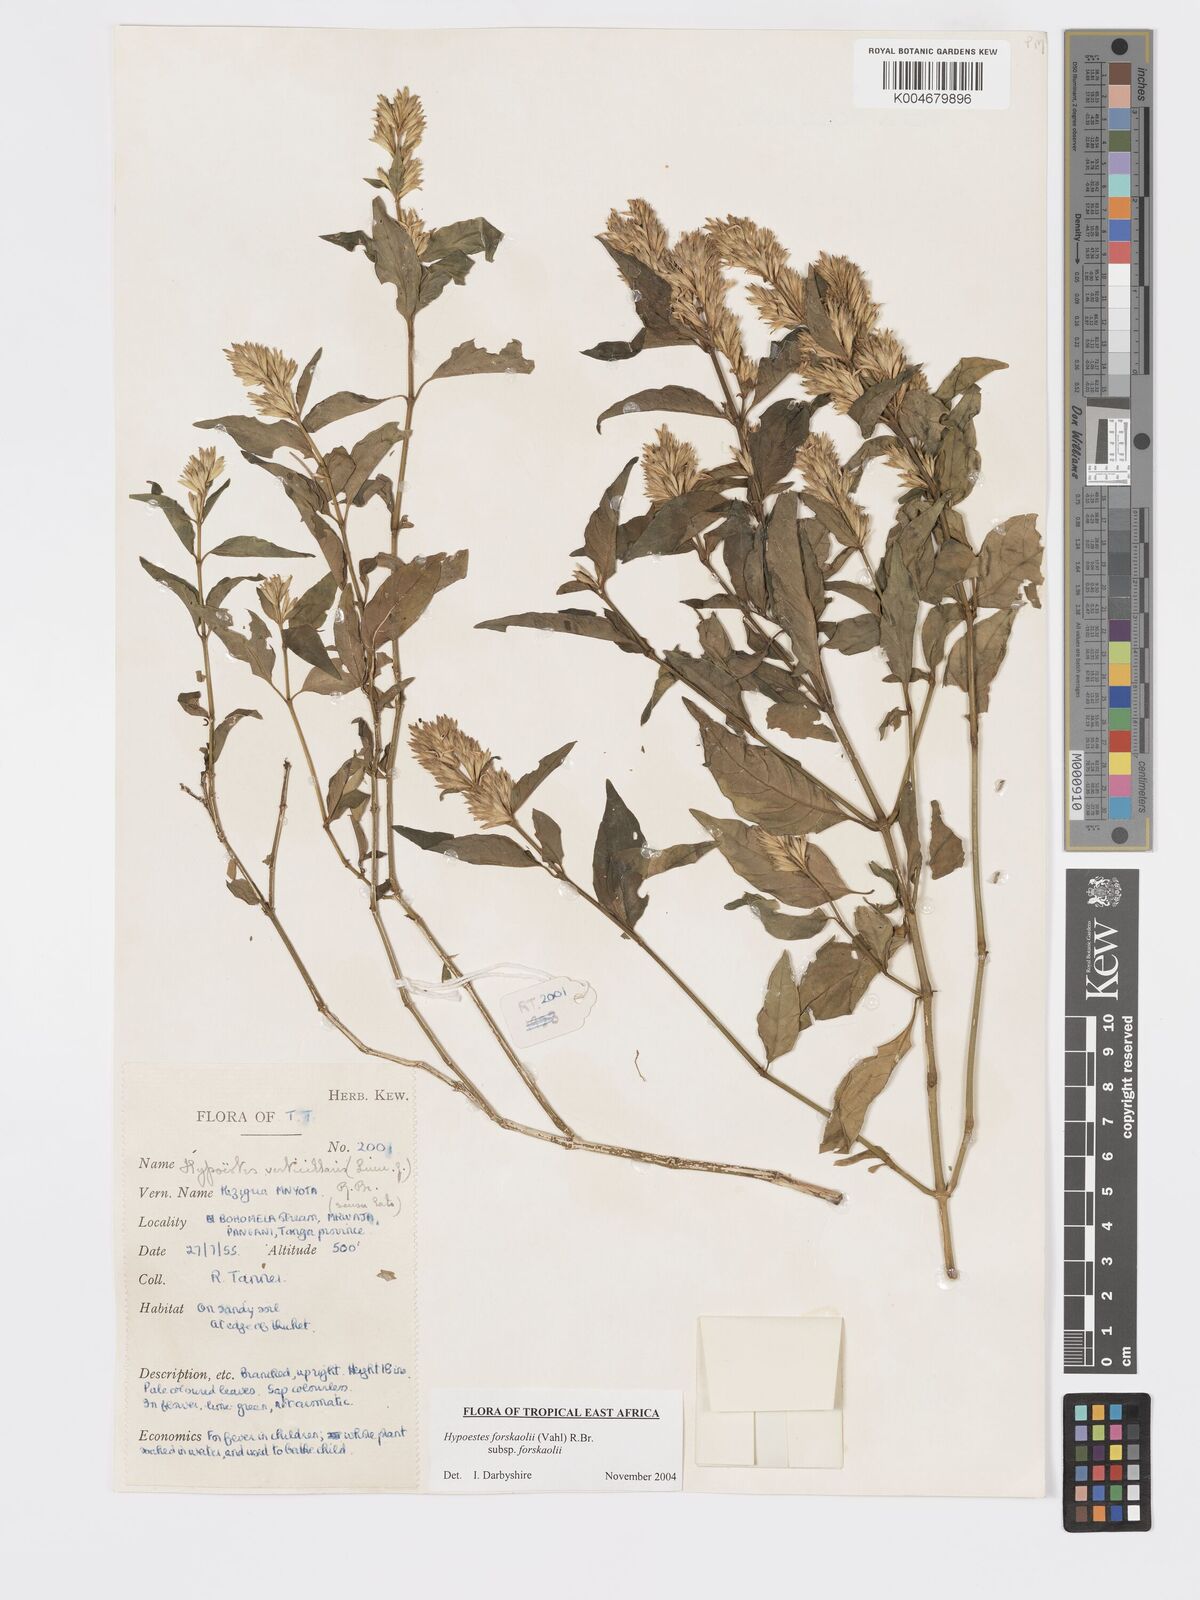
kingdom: Plantae
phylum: Tracheophyta
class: Magnoliopsida
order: Lamiales
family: Acanthaceae
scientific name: Acanthaceae
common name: Acanthaceae
